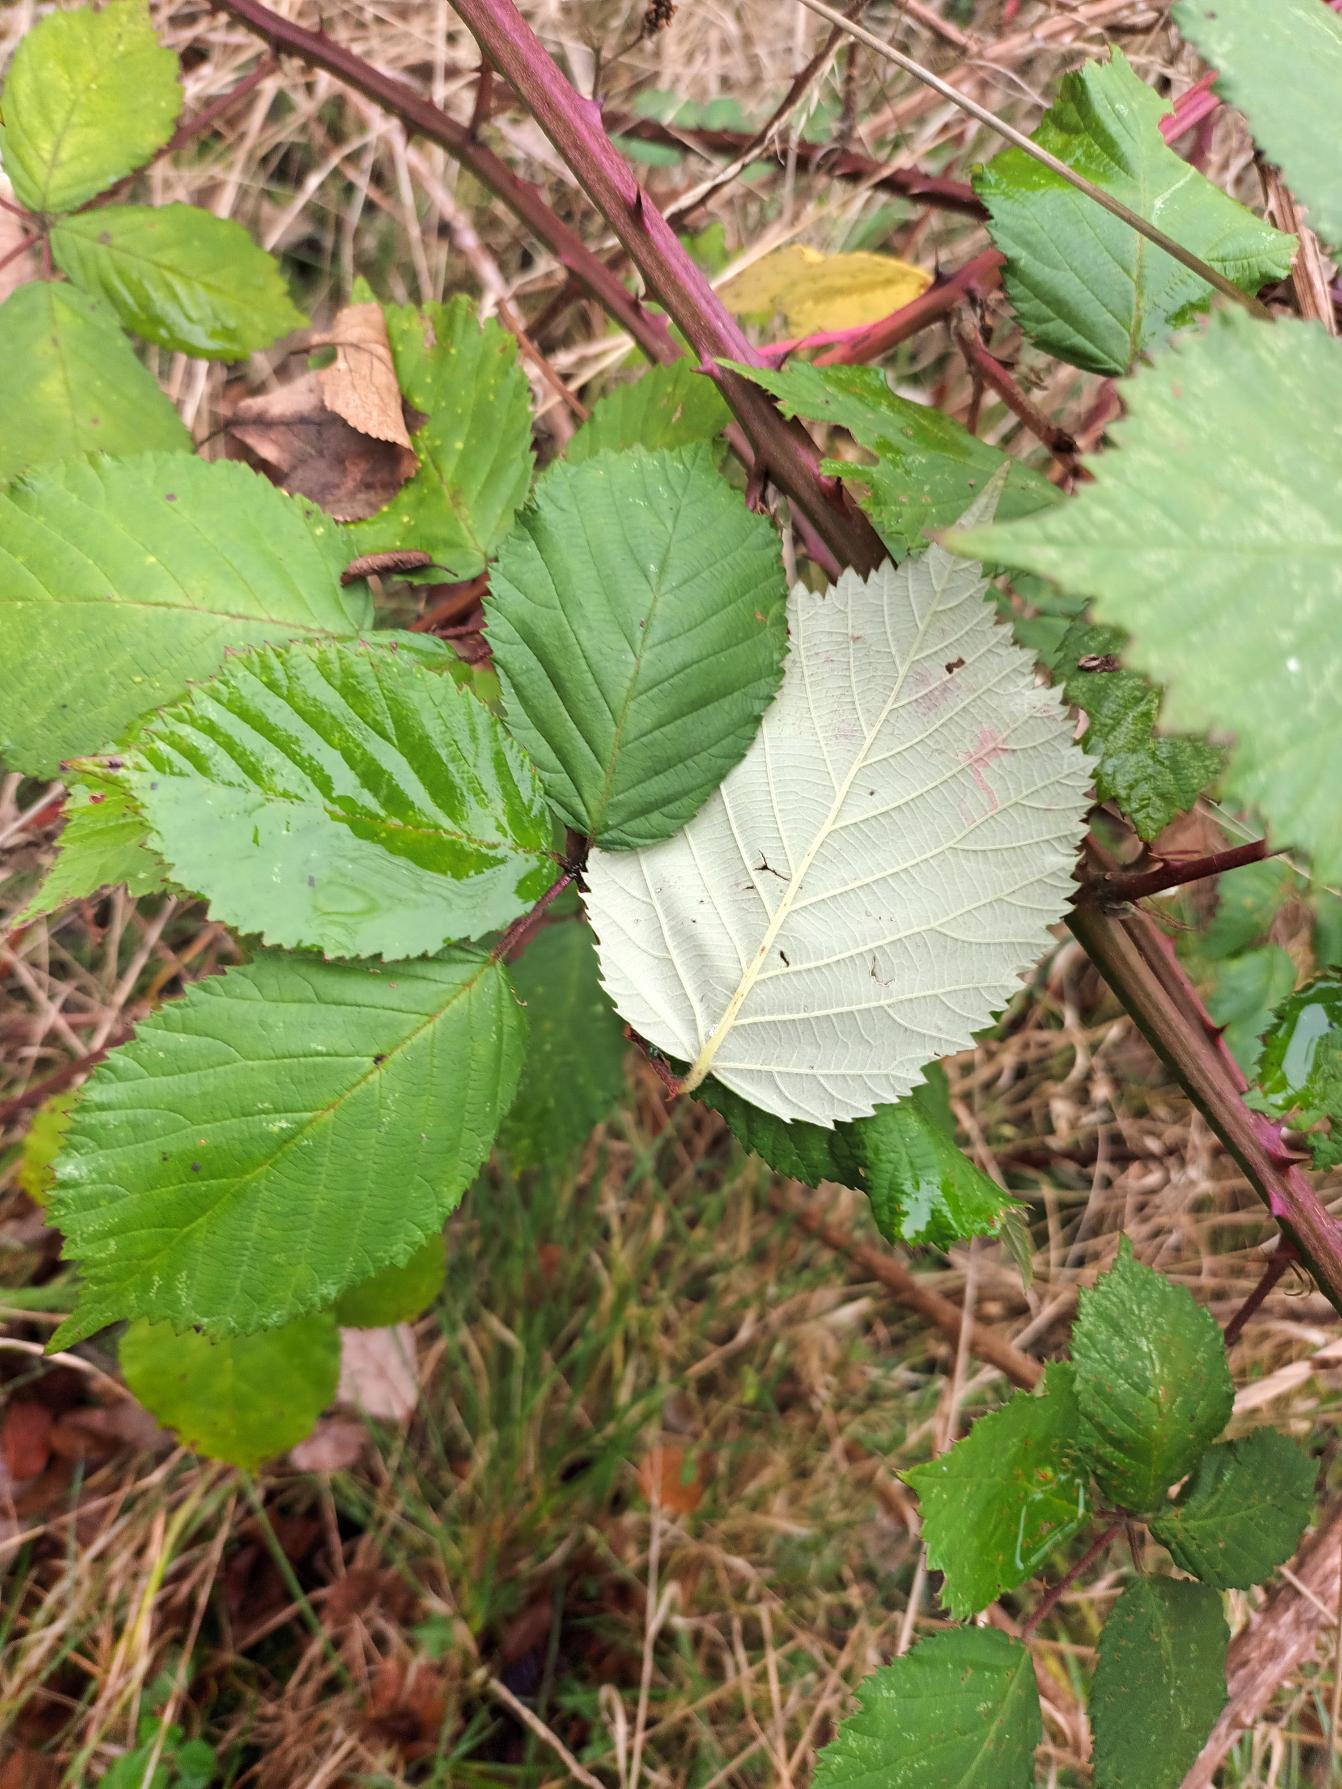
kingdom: Plantae
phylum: Tracheophyta
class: Magnoliopsida
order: Rosales
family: Rosaceae
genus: Rubus
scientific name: Rubus armeniacus
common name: Armensk brombær
